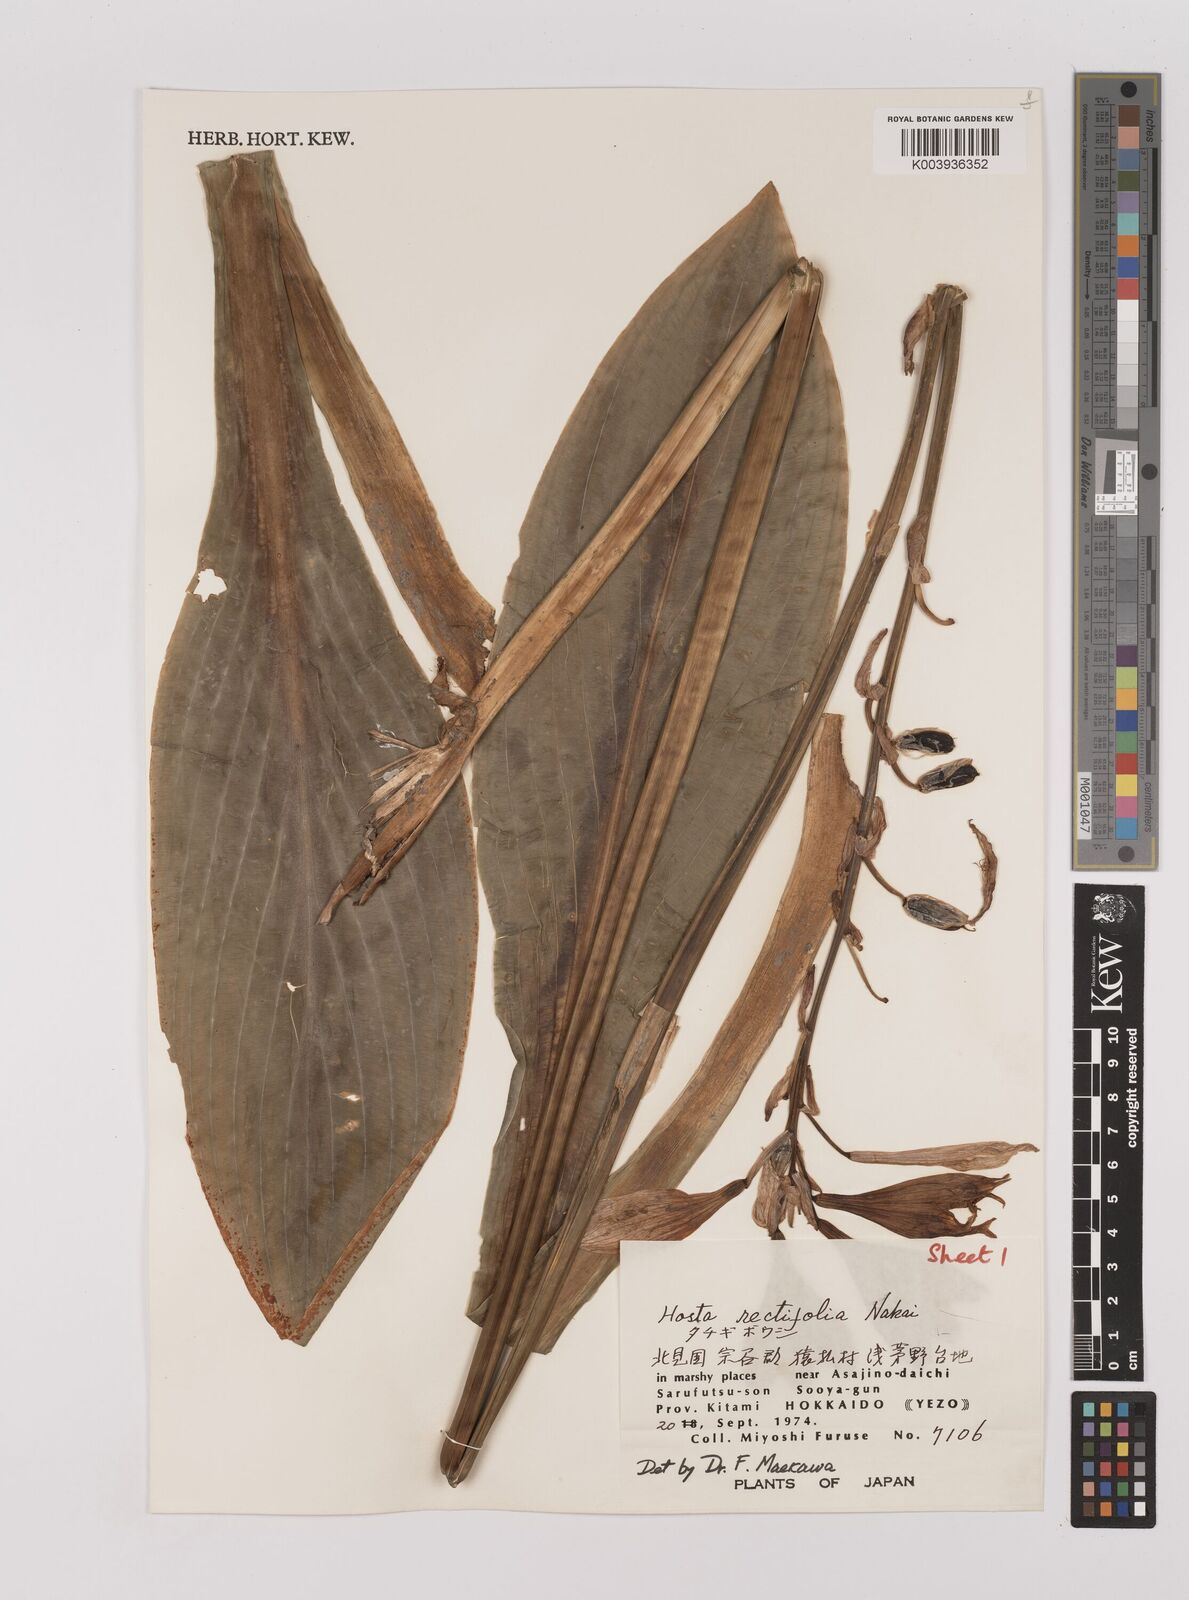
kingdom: Plantae
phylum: Tracheophyta
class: Liliopsida
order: Asparagales
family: Asparagaceae
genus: Hosta
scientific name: Hosta sieboldii
